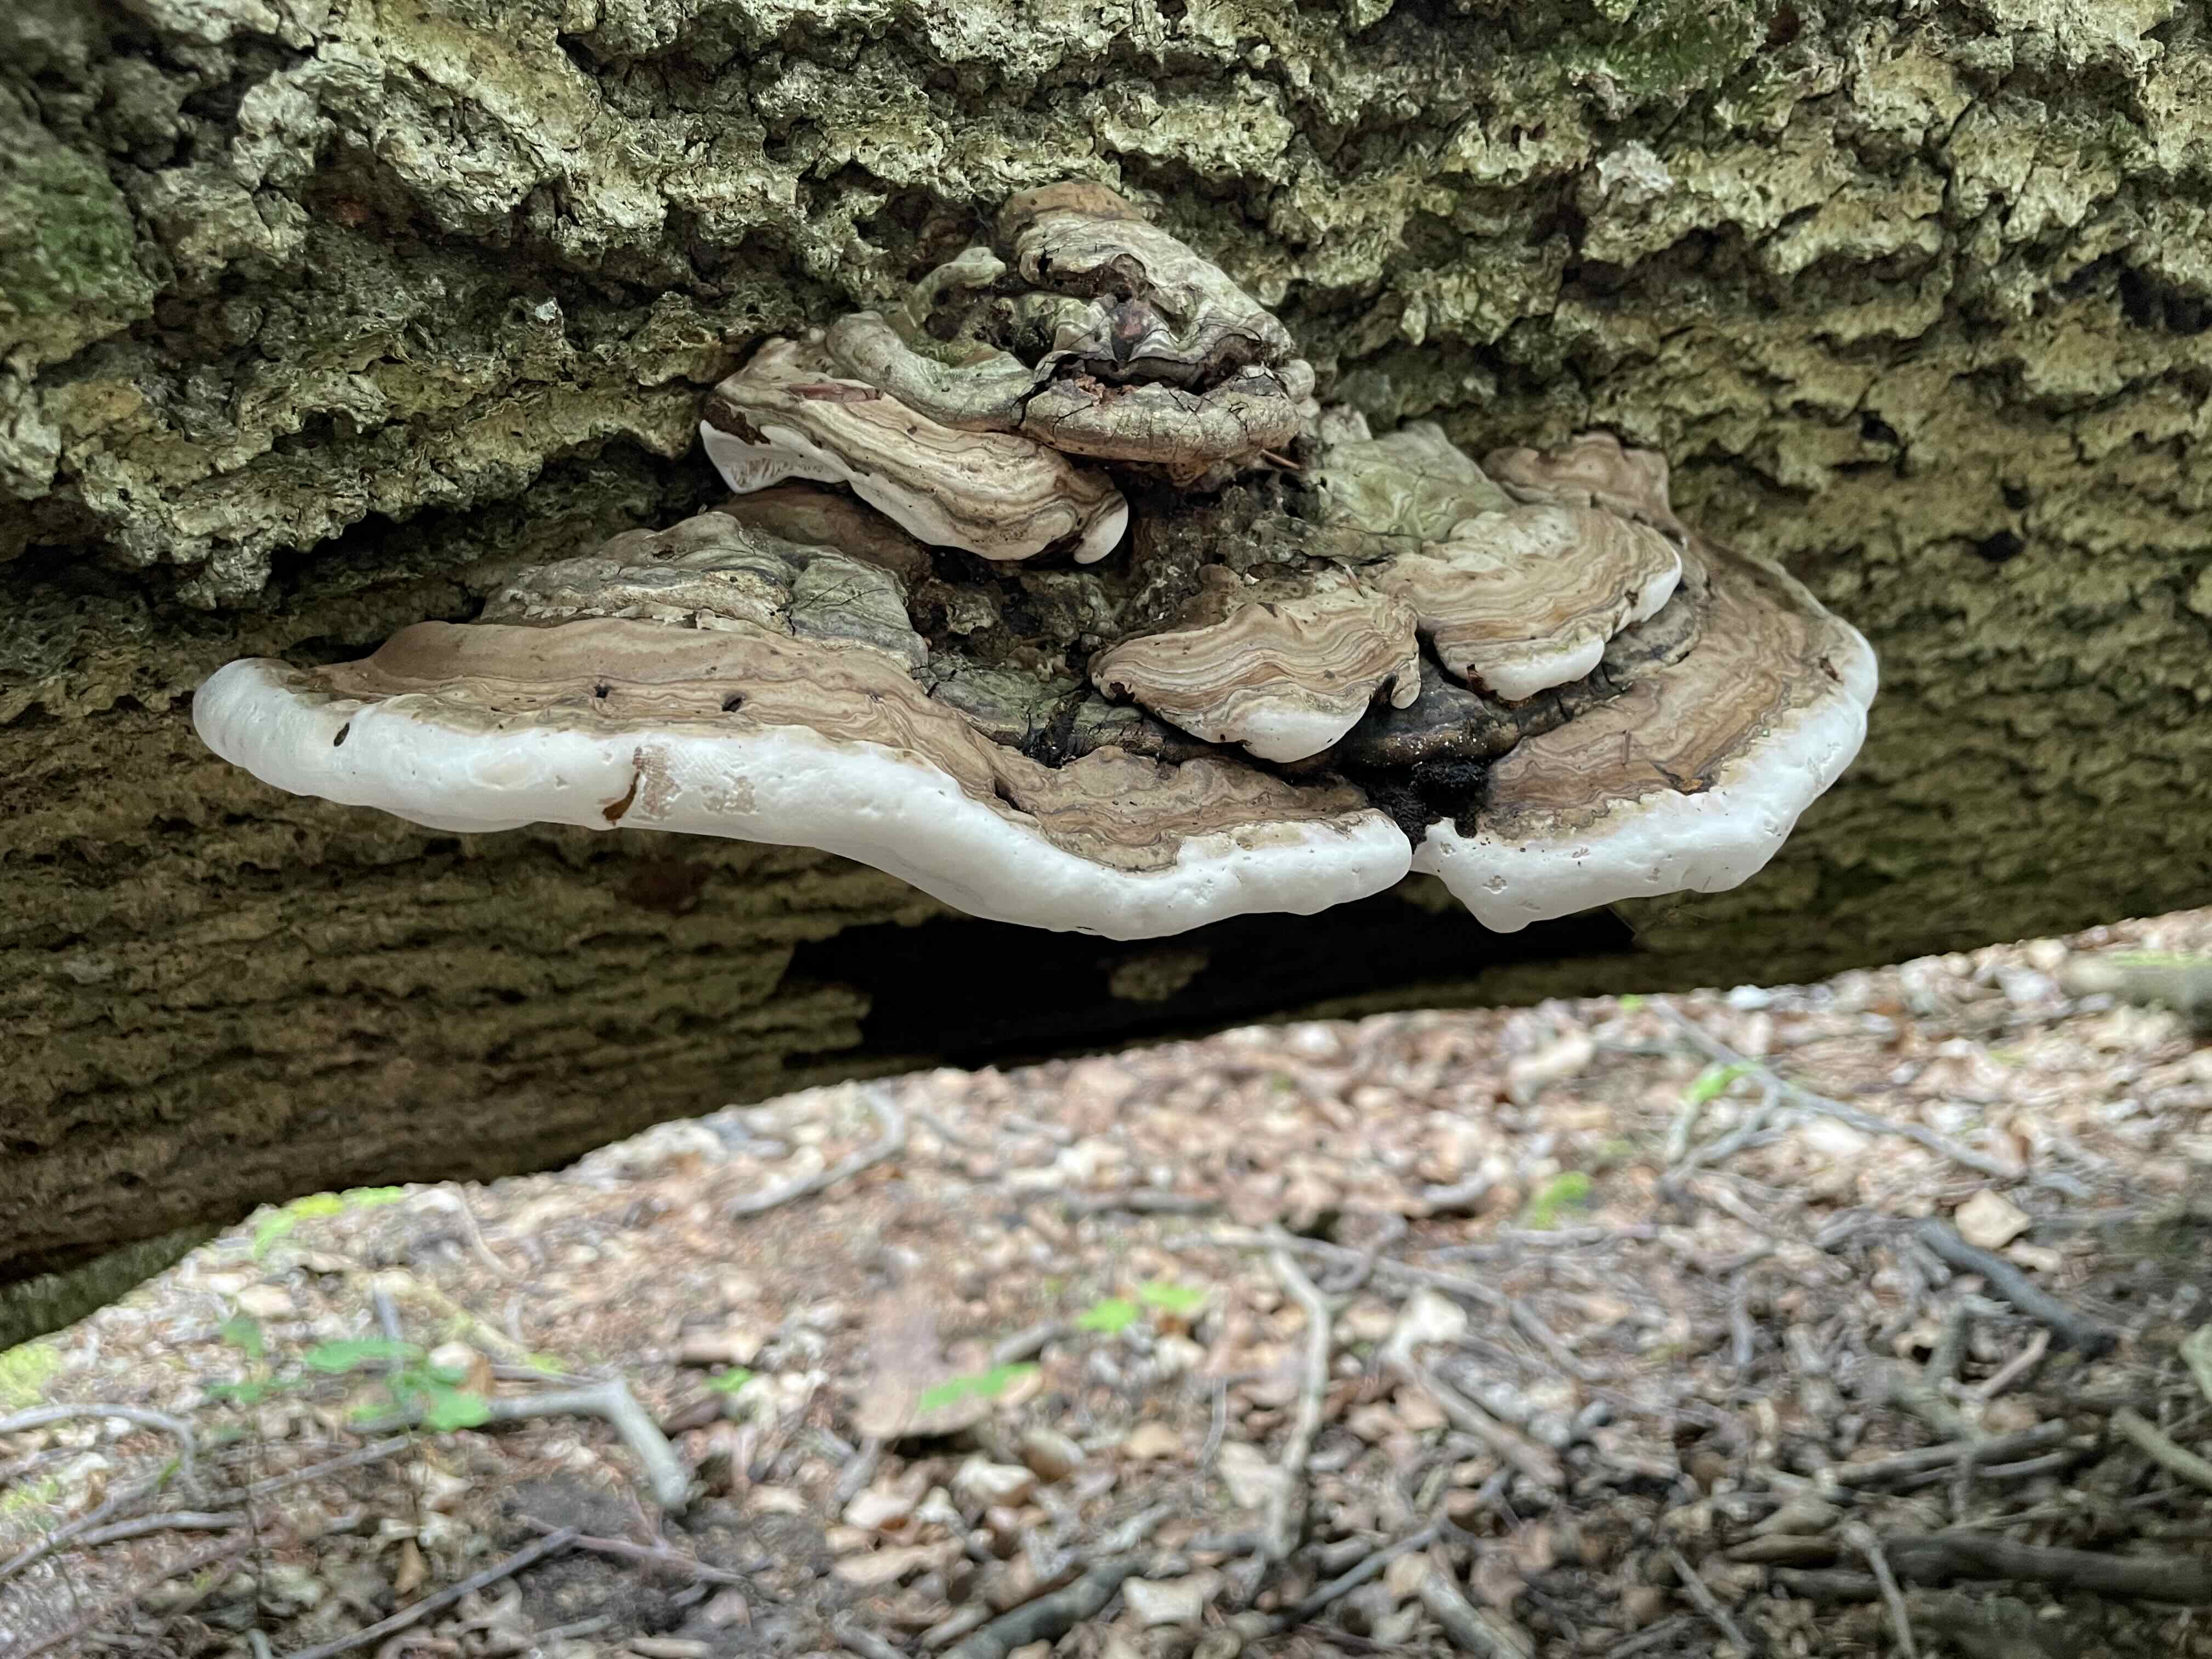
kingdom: Fungi
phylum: Basidiomycota
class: Agaricomycetes
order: Polyporales
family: Polyporaceae
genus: Ganoderma
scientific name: Ganoderma applanatum
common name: flad lakporesvamp
